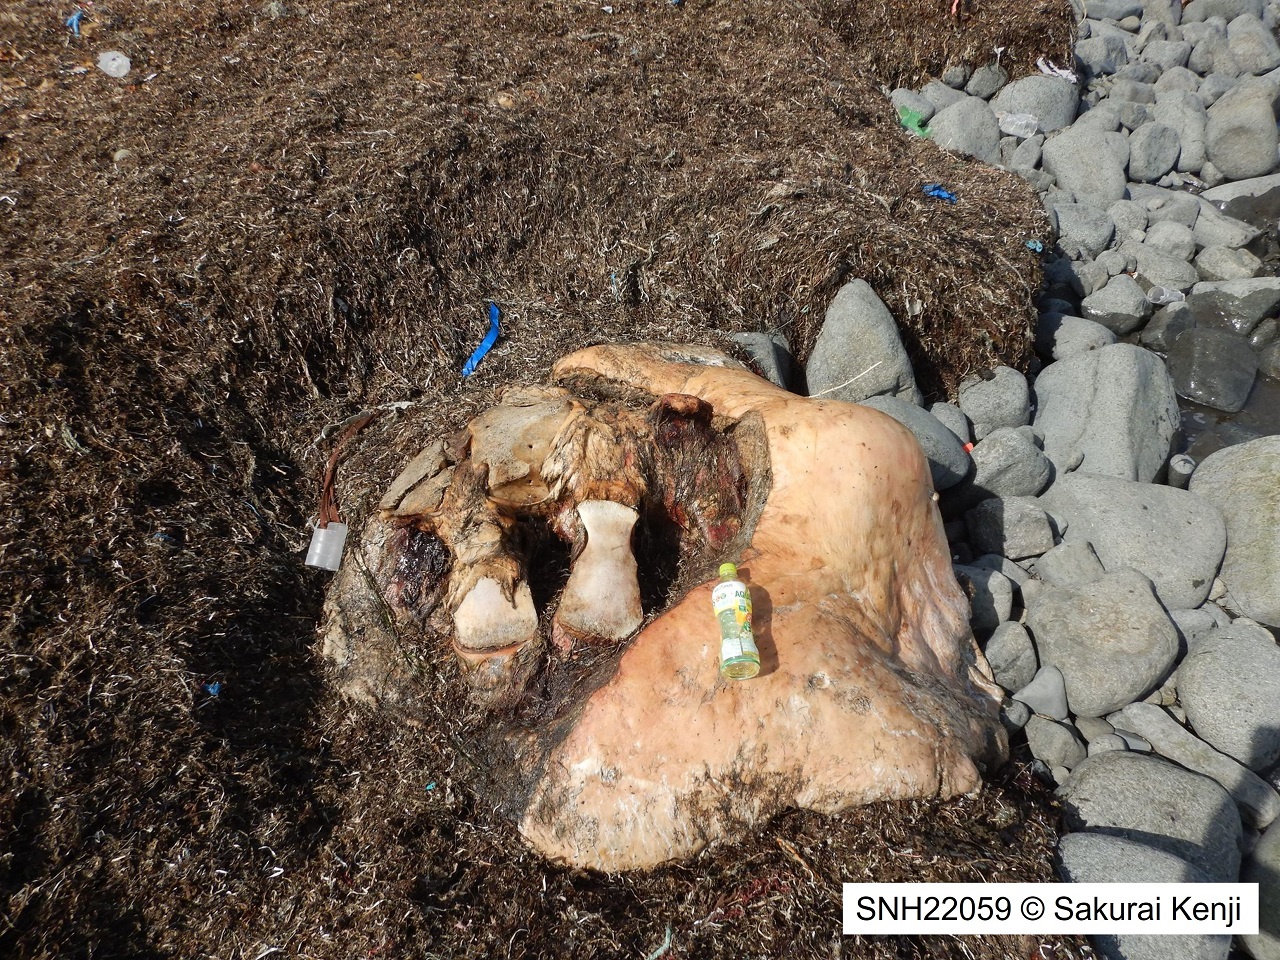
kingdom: Animalia
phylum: Chordata
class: Mammalia
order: Cetacea
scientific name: Cetacea
